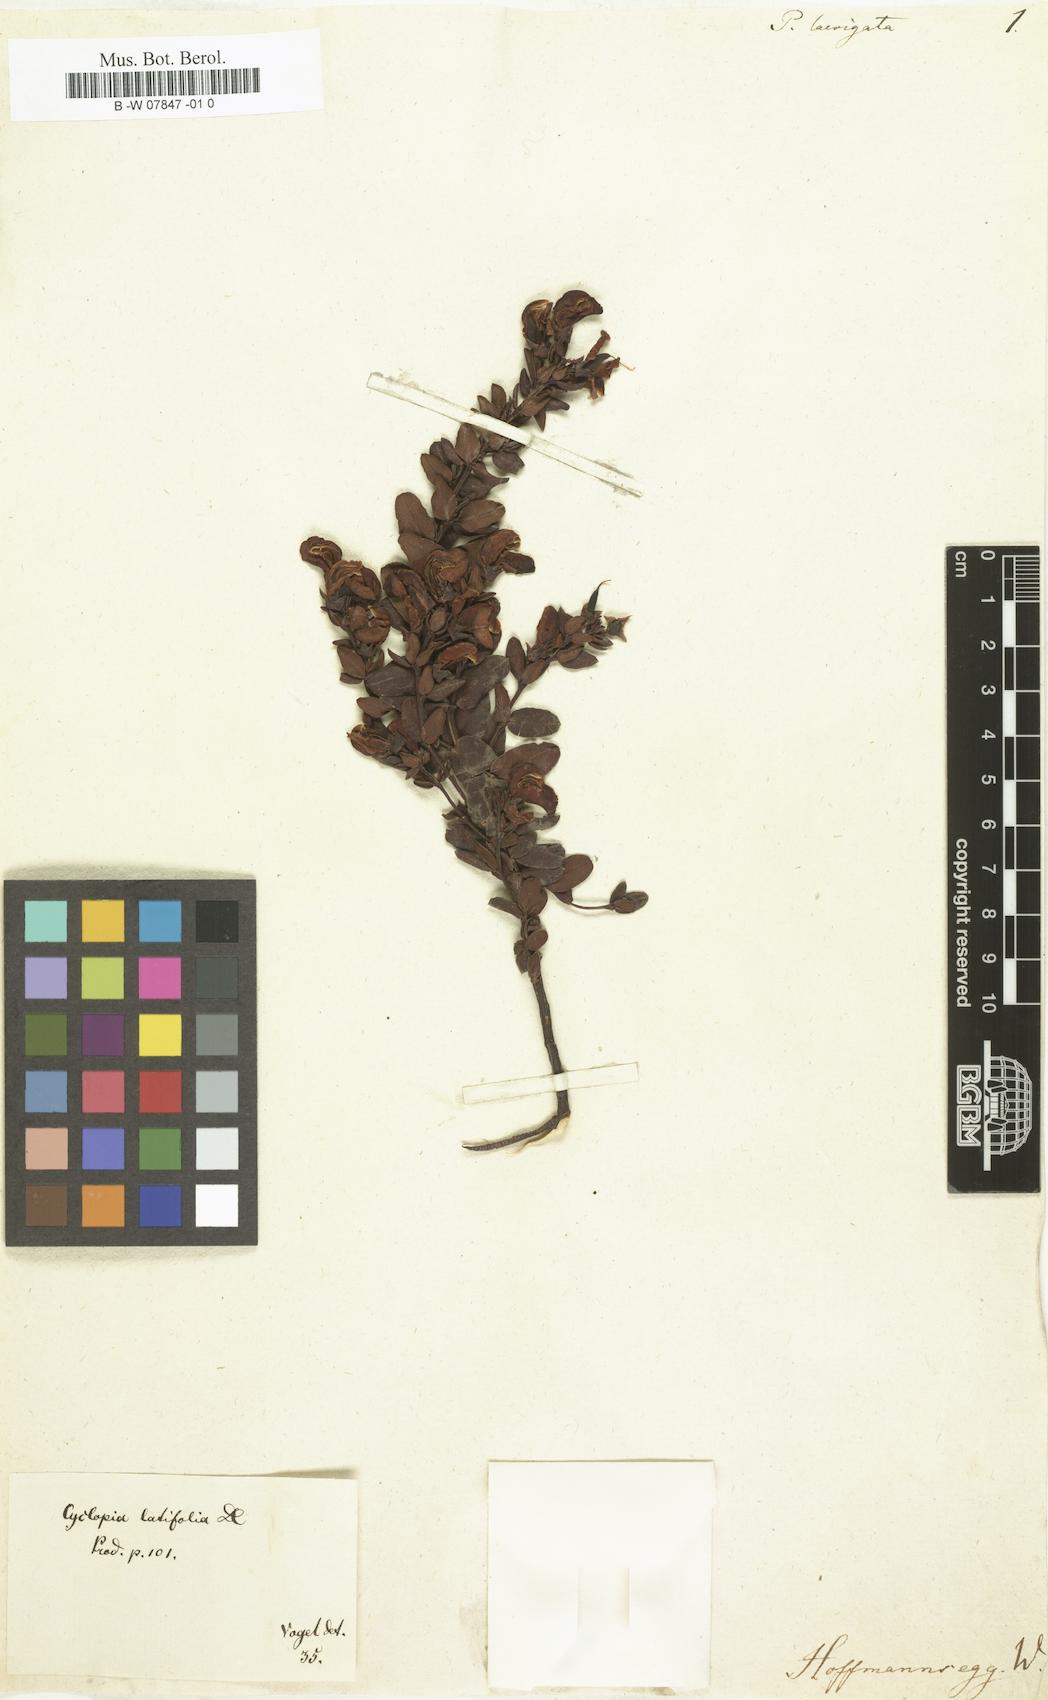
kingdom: Plantae
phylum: Tracheophyta
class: Magnoliopsida
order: Fabales
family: Fabaceae
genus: Cyclopia
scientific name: Cyclopia latifolia
